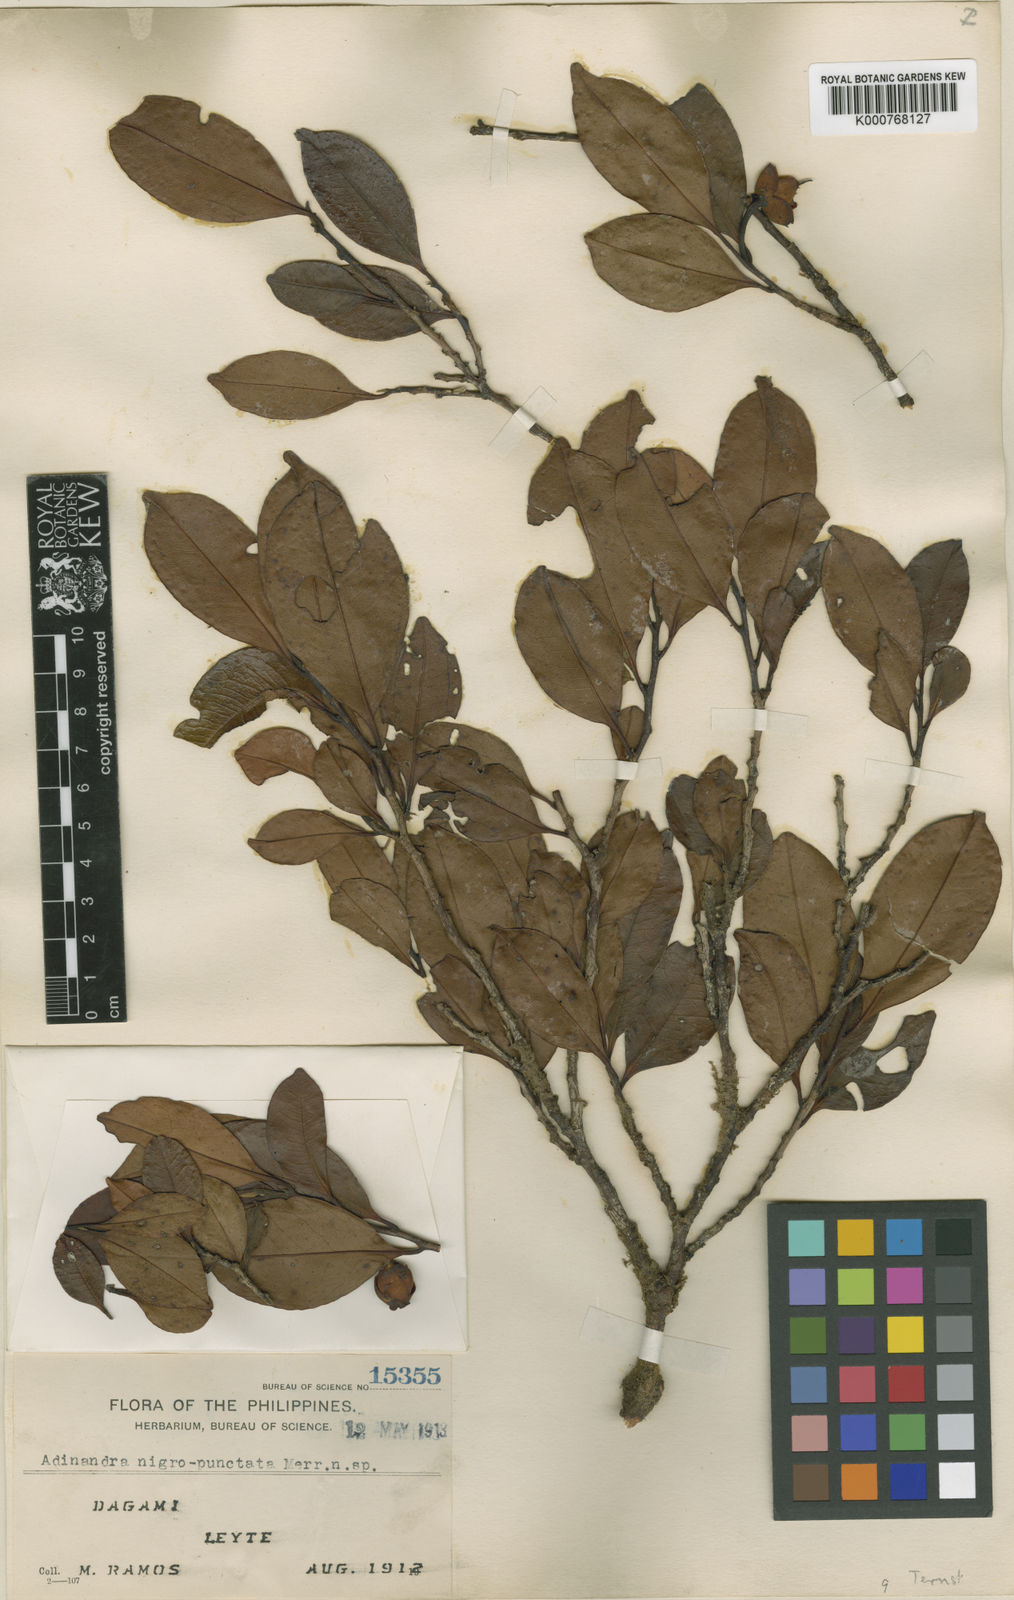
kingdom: Plantae
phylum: Tracheophyta
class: Magnoliopsida
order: Ericales
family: Pentaphylacaceae
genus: Adinandra
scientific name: Adinandra nigropunctata
